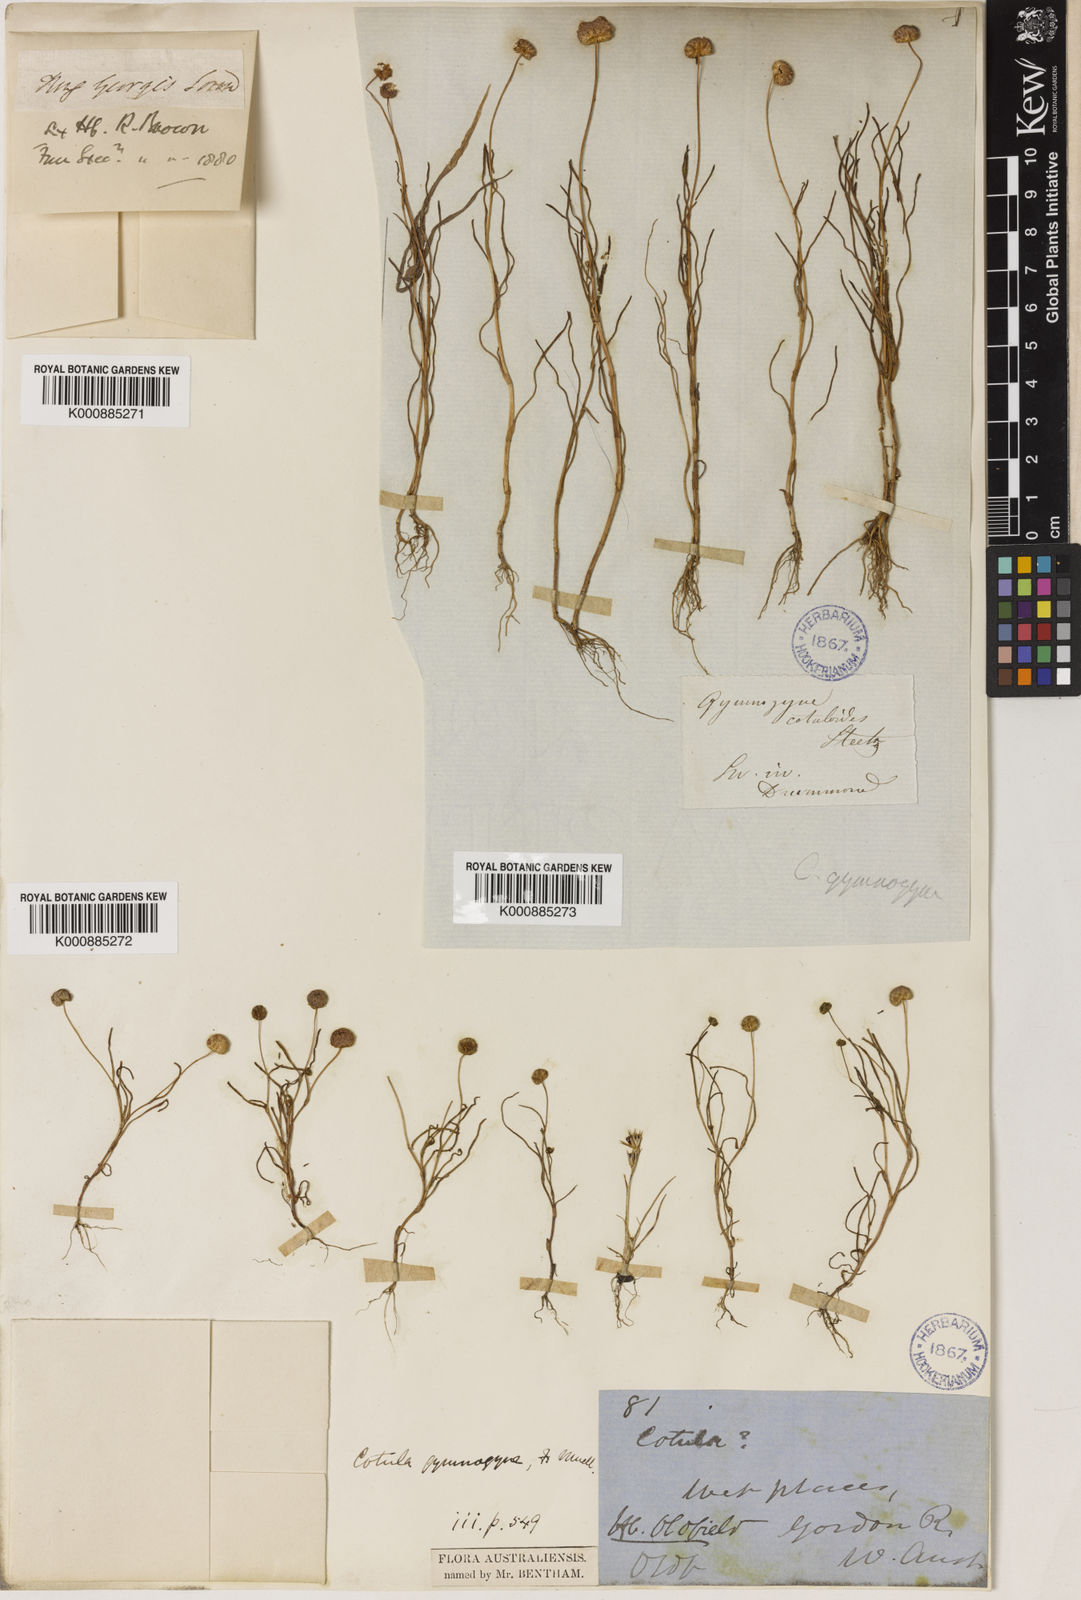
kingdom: Plantae
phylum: Tracheophyta
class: Magnoliopsida
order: Asterales
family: Asteraceae
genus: Cotula
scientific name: Cotula cotuloides
